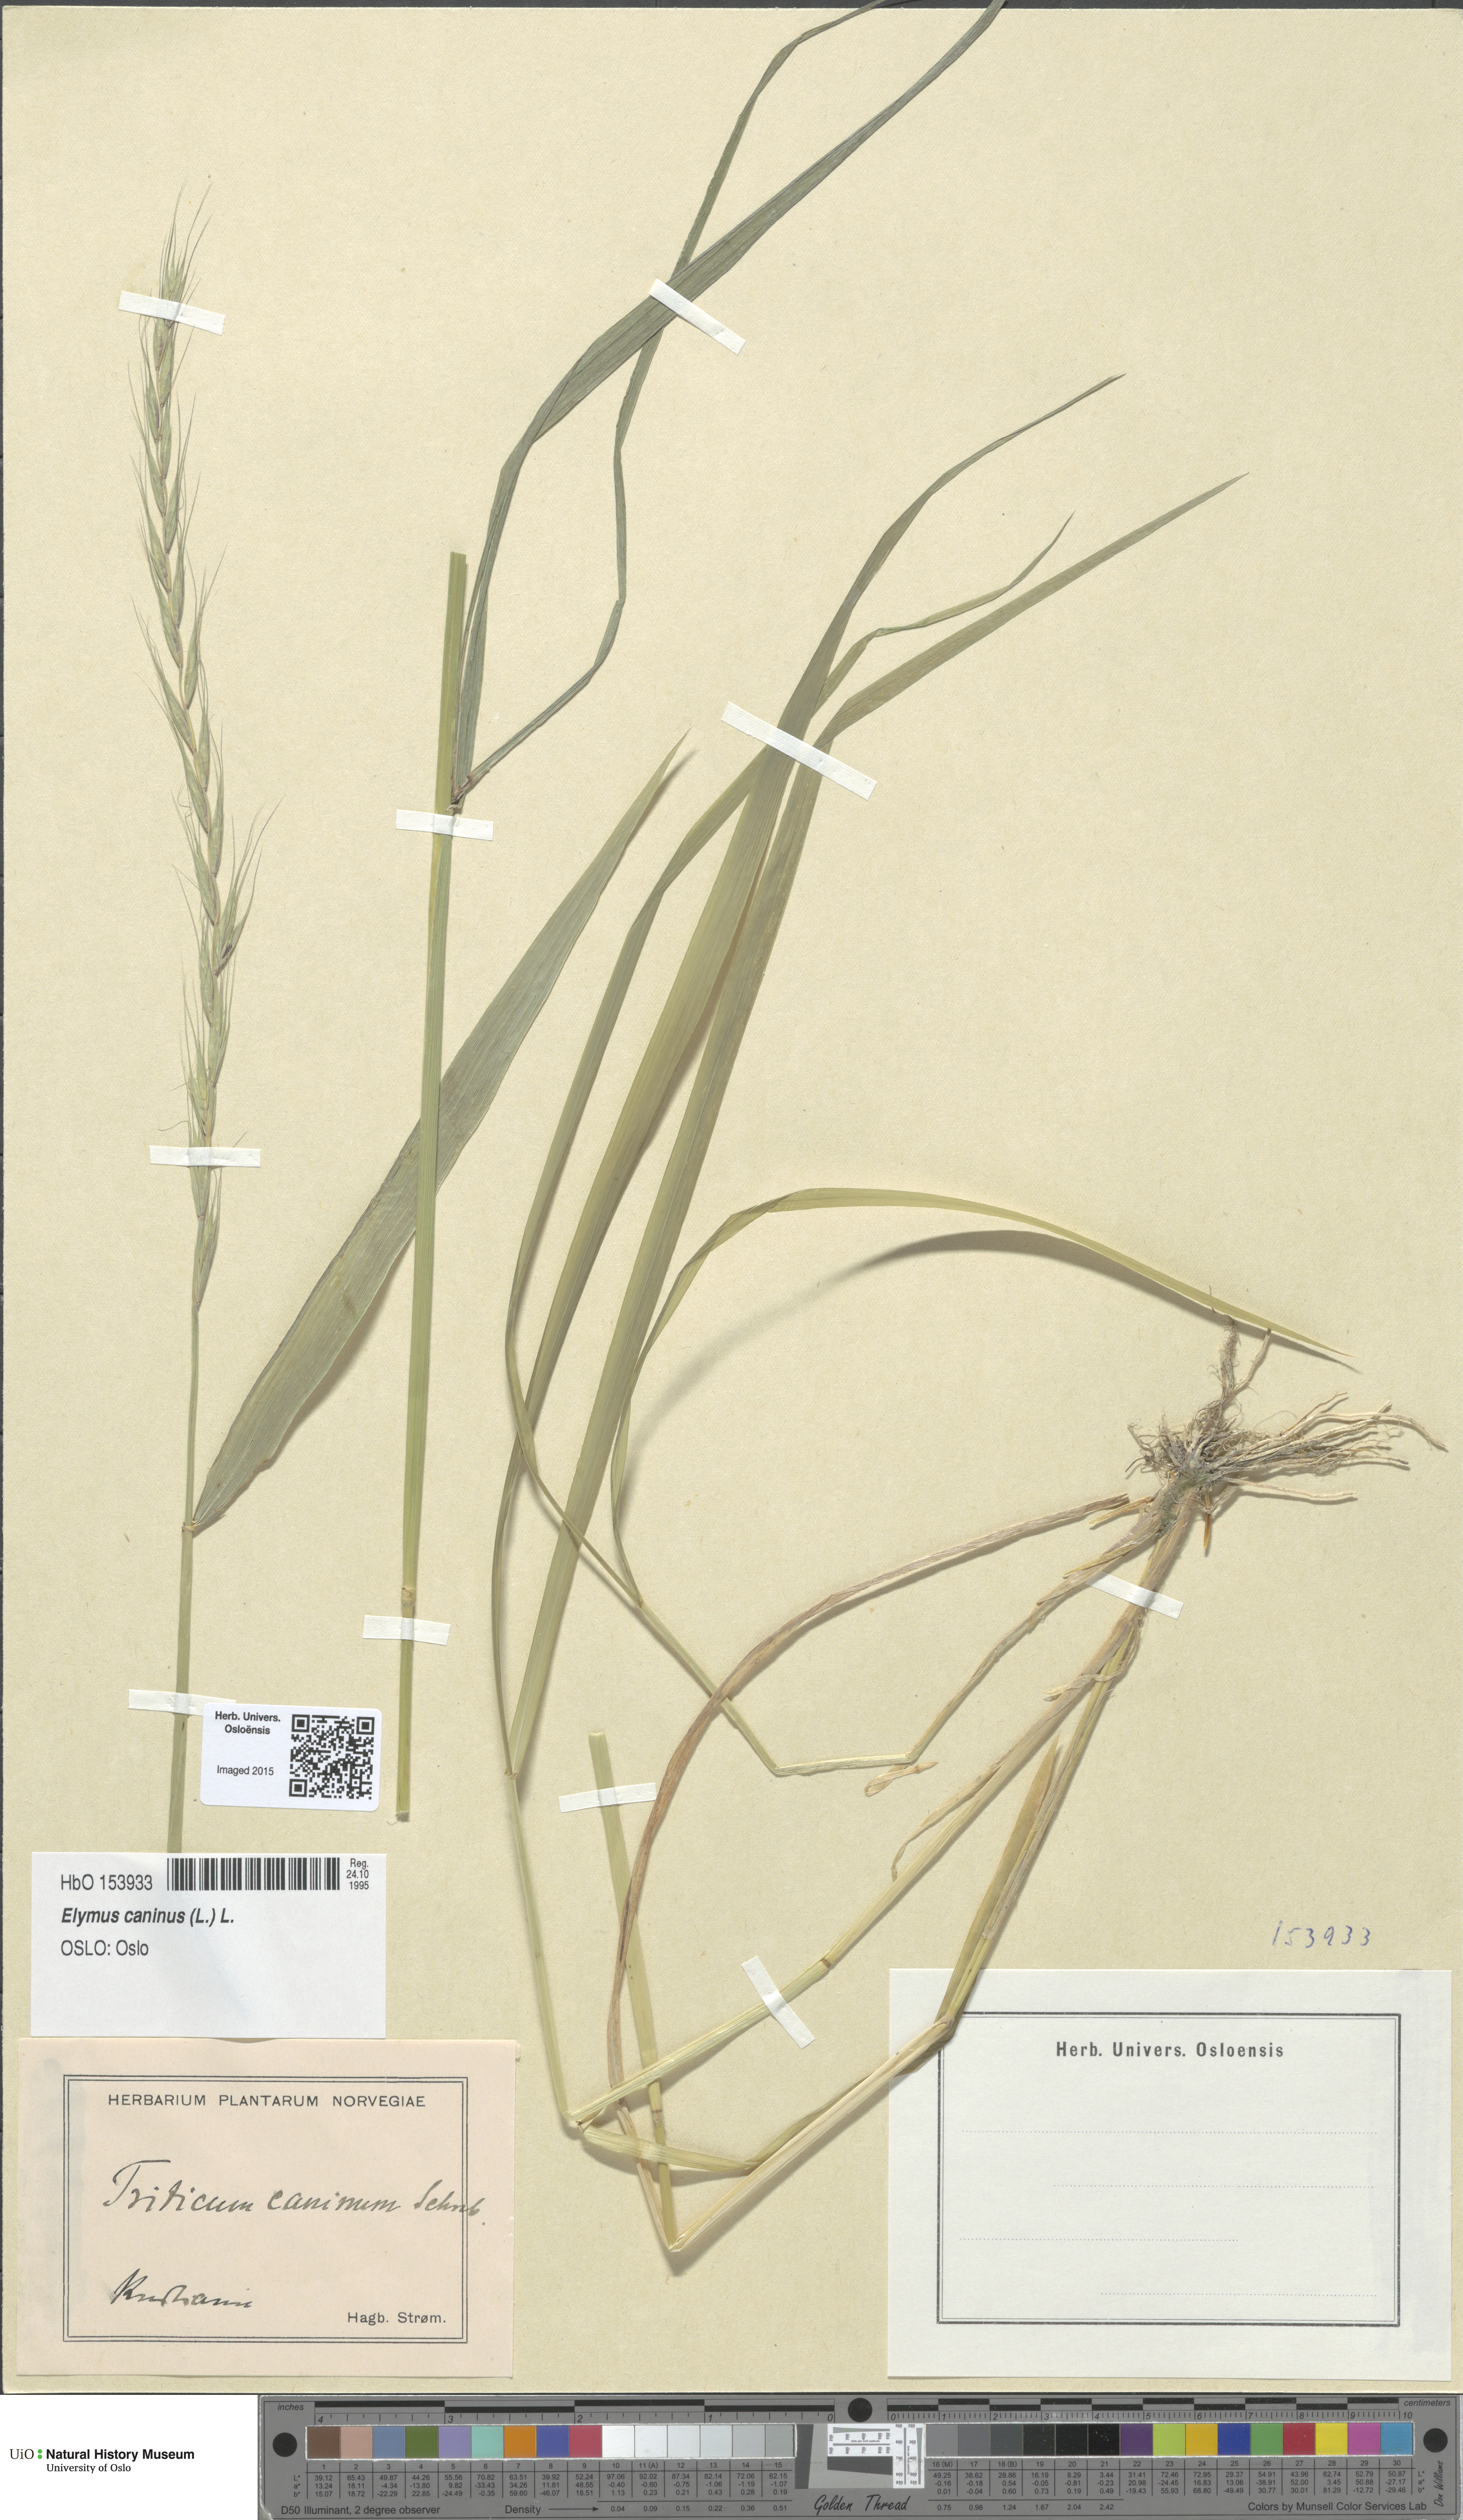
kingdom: Plantae
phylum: Tracheophyta
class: Liliopsida
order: Poales
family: Poaceae
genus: Elymus
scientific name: Elymus caninus
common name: Bearded couch
